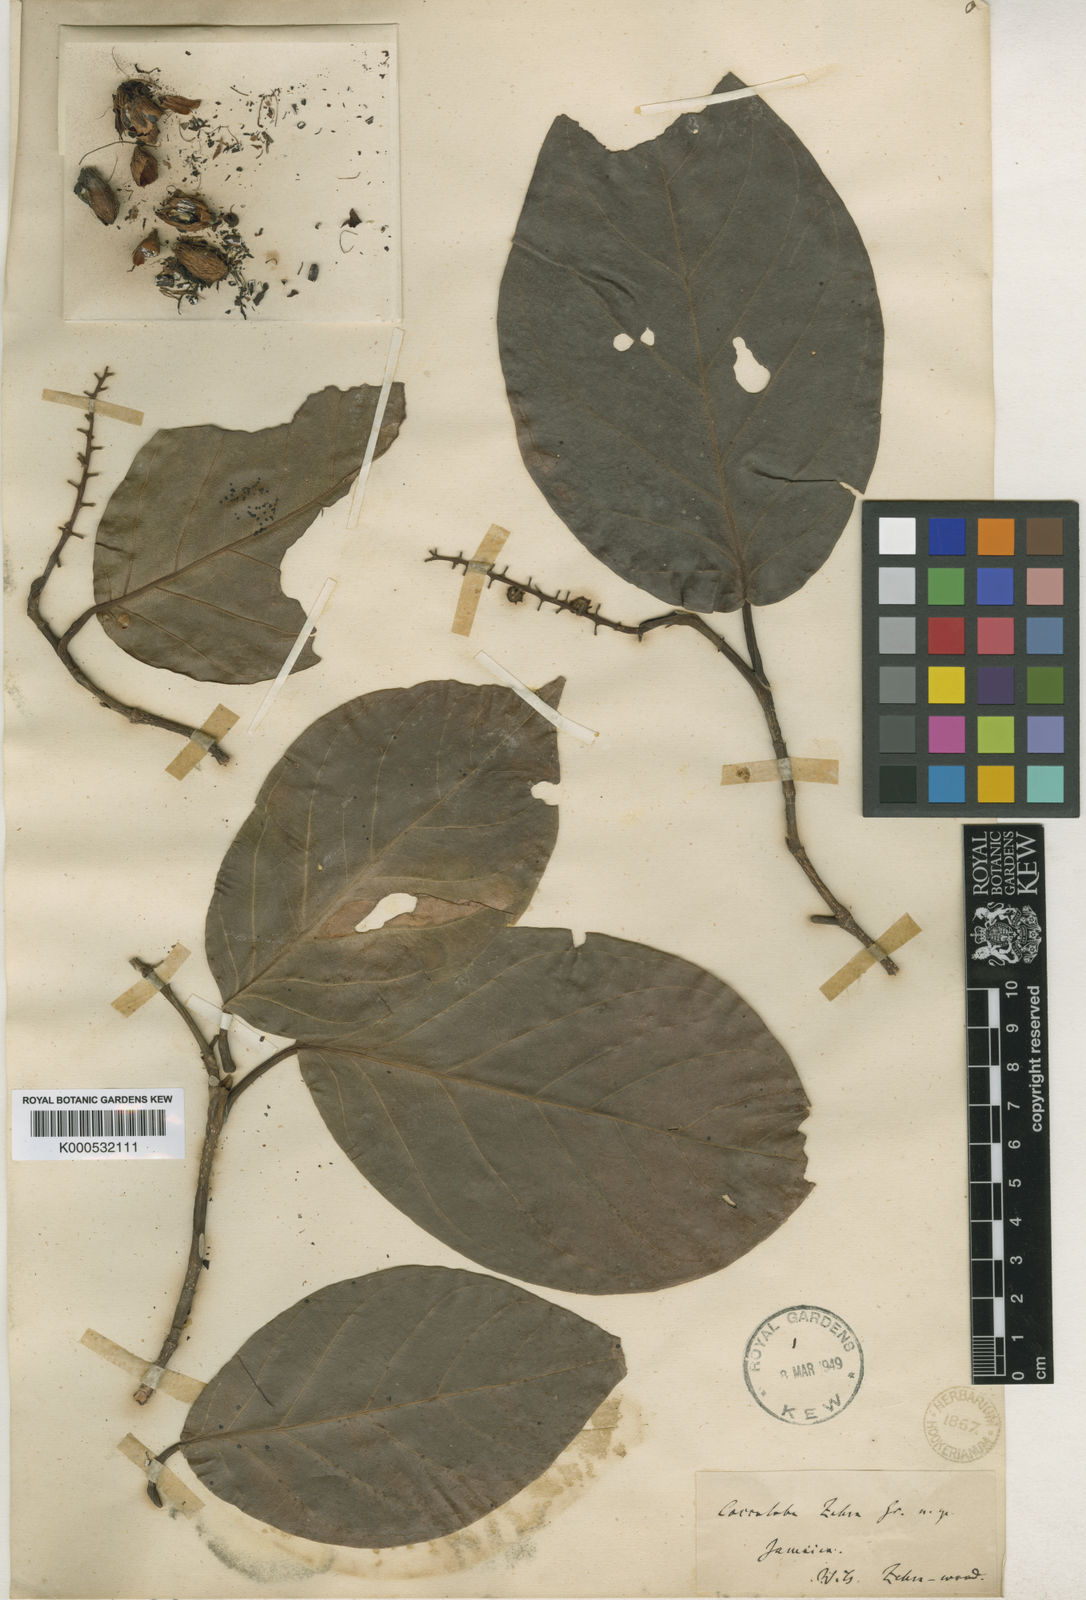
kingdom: Plantae
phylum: Tracheophyta
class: Magnoliopsida
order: Caryophyllales
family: Polygonaceae
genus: Coccoloba
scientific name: Coccoloba zebra
